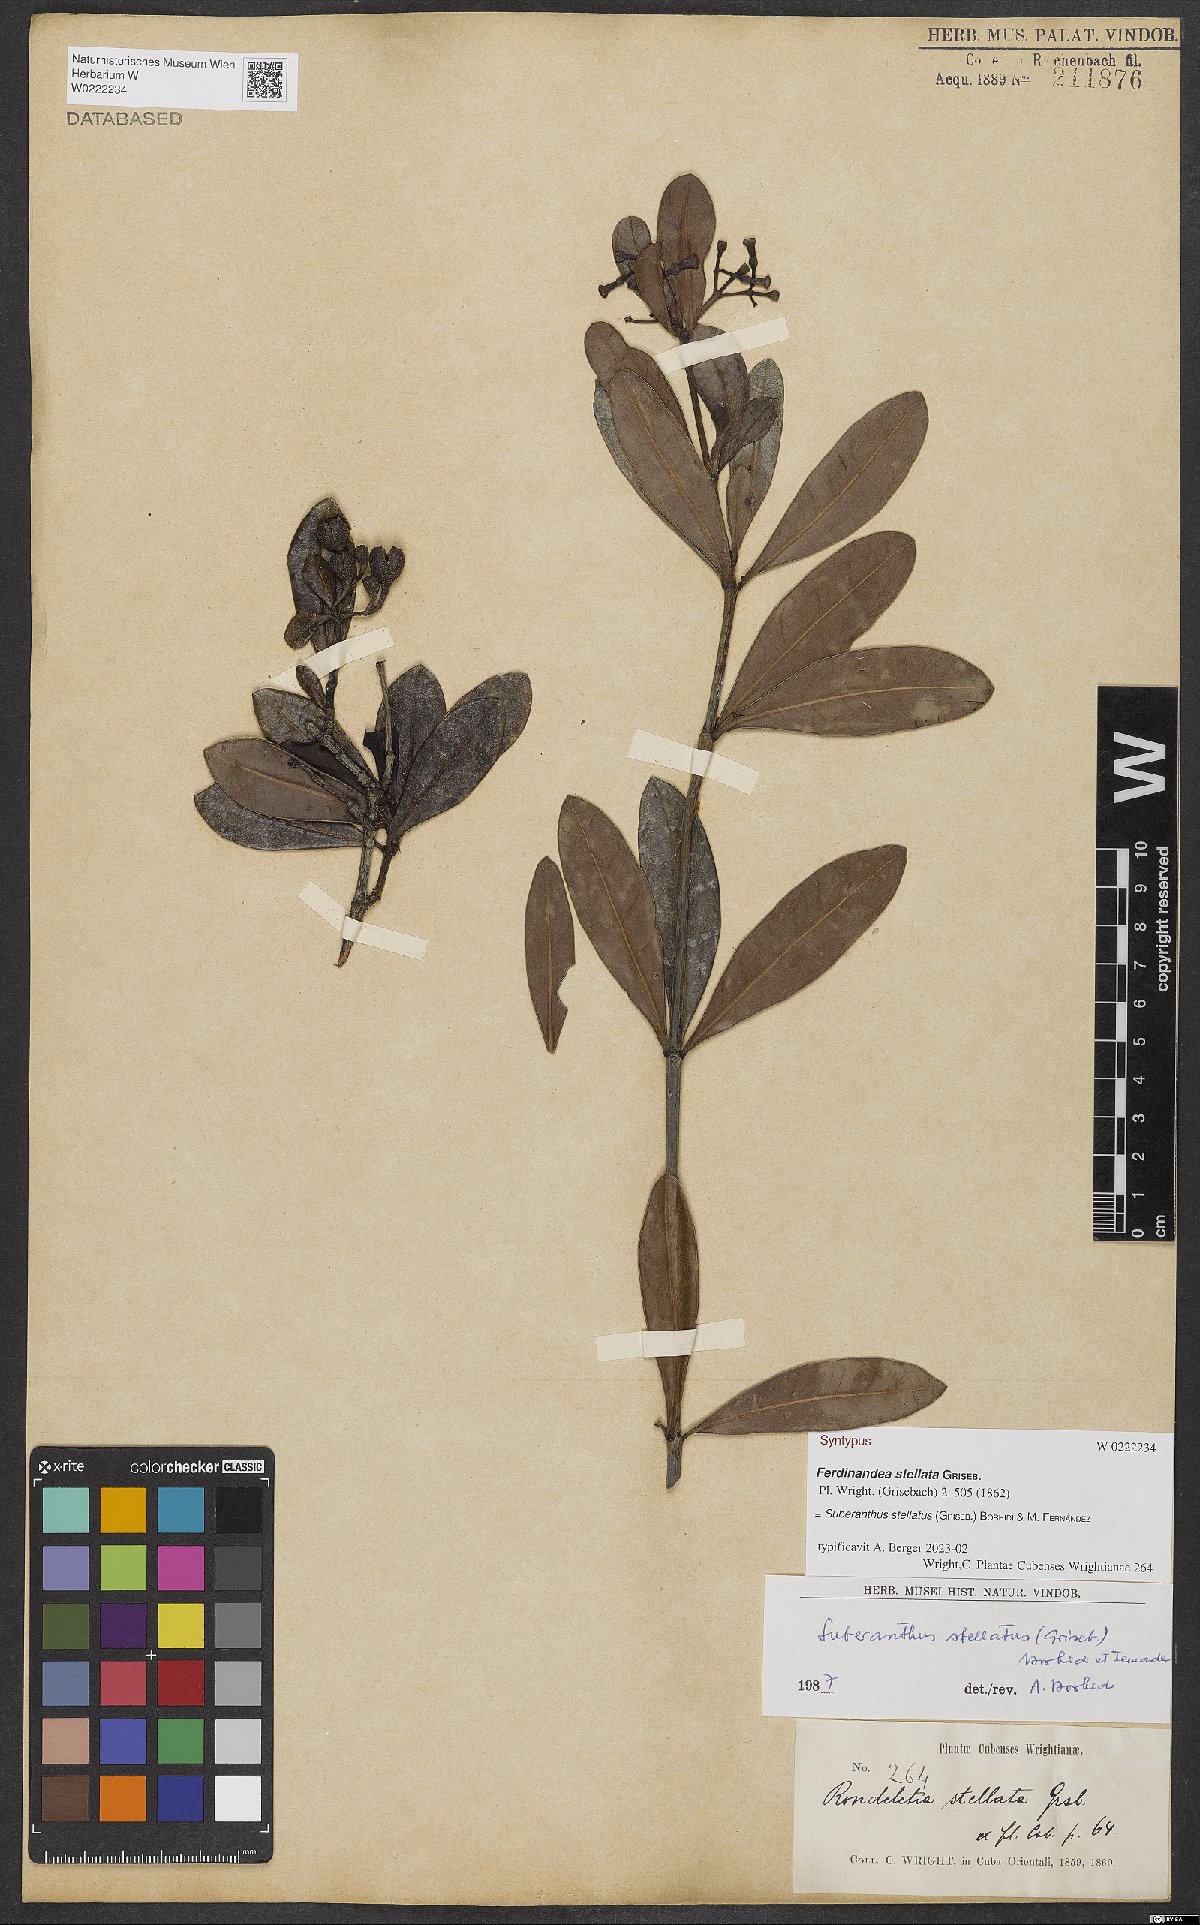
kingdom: Plantae
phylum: Tracheophyta
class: Magnoliopsida
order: Gentianales
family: Rubiaceae
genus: Suberanthus
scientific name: Suberanthus stellatus
